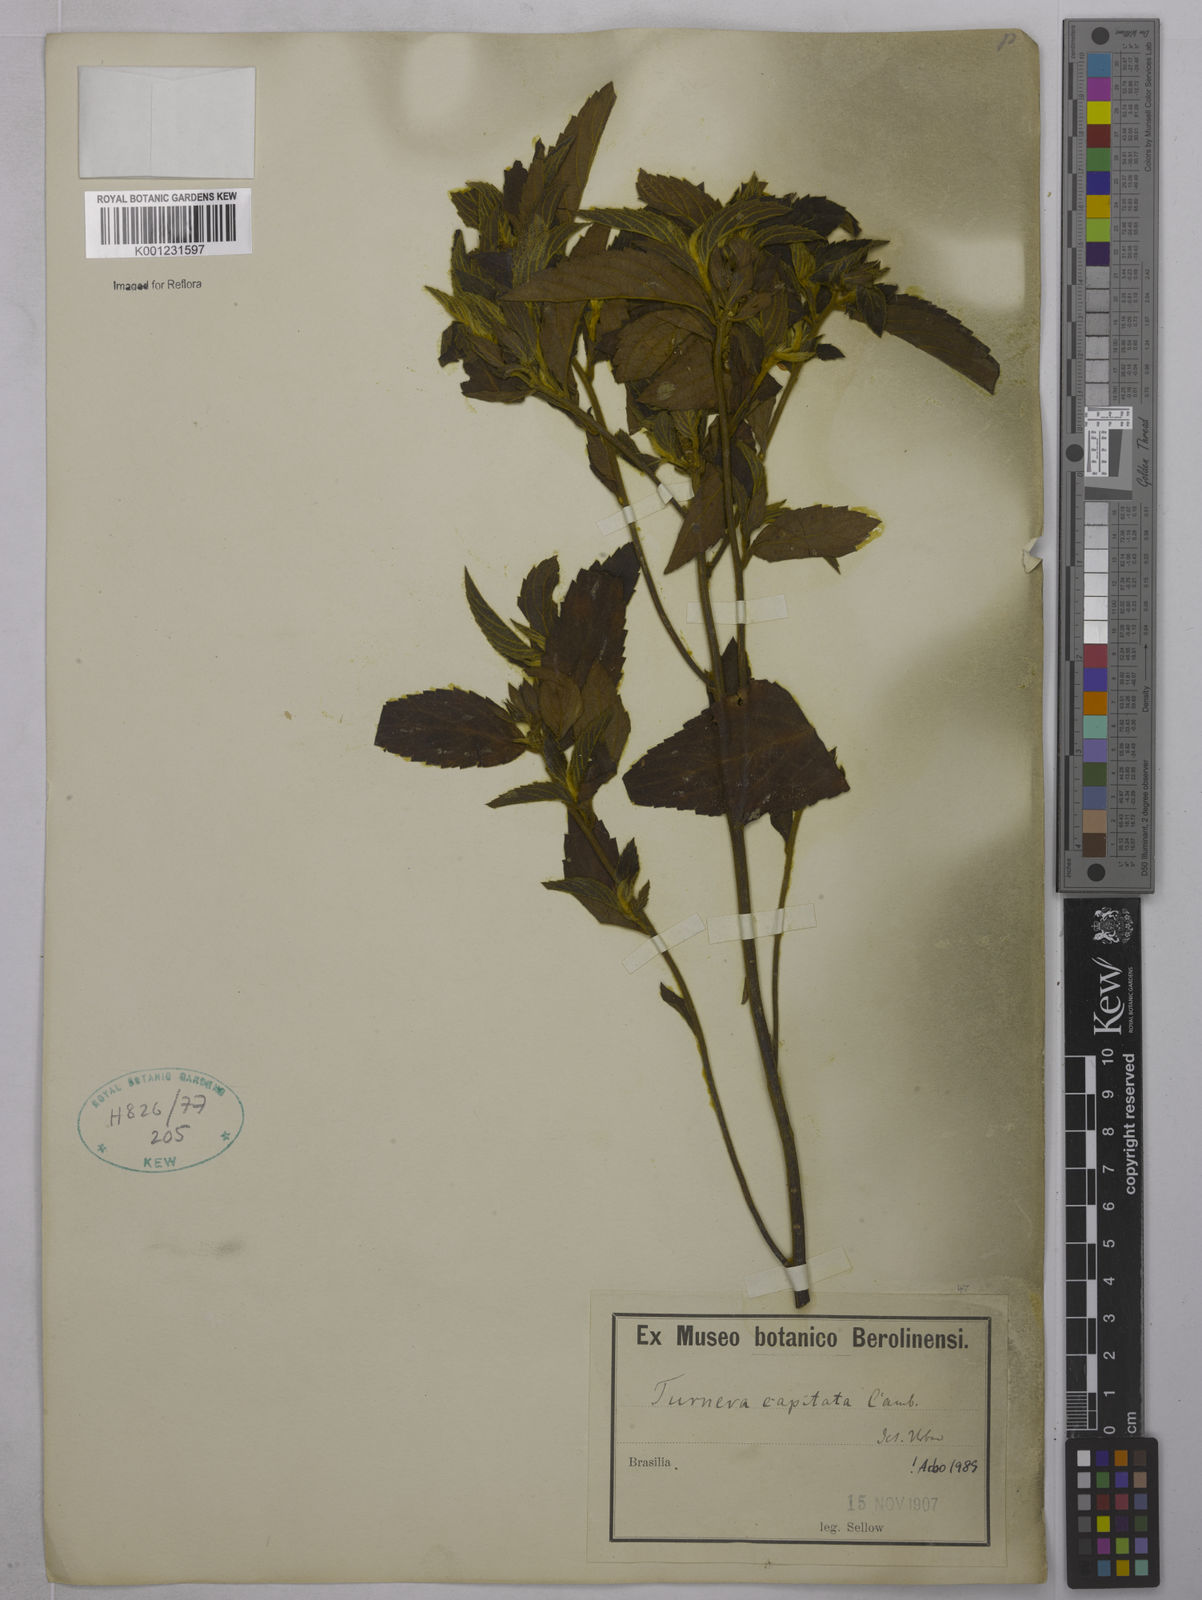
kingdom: Plantae
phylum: Tracheophyta
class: Magnoliopsida
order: Malpighiales
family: Turneraceae
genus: Oxossia
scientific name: Oxossia capitata
